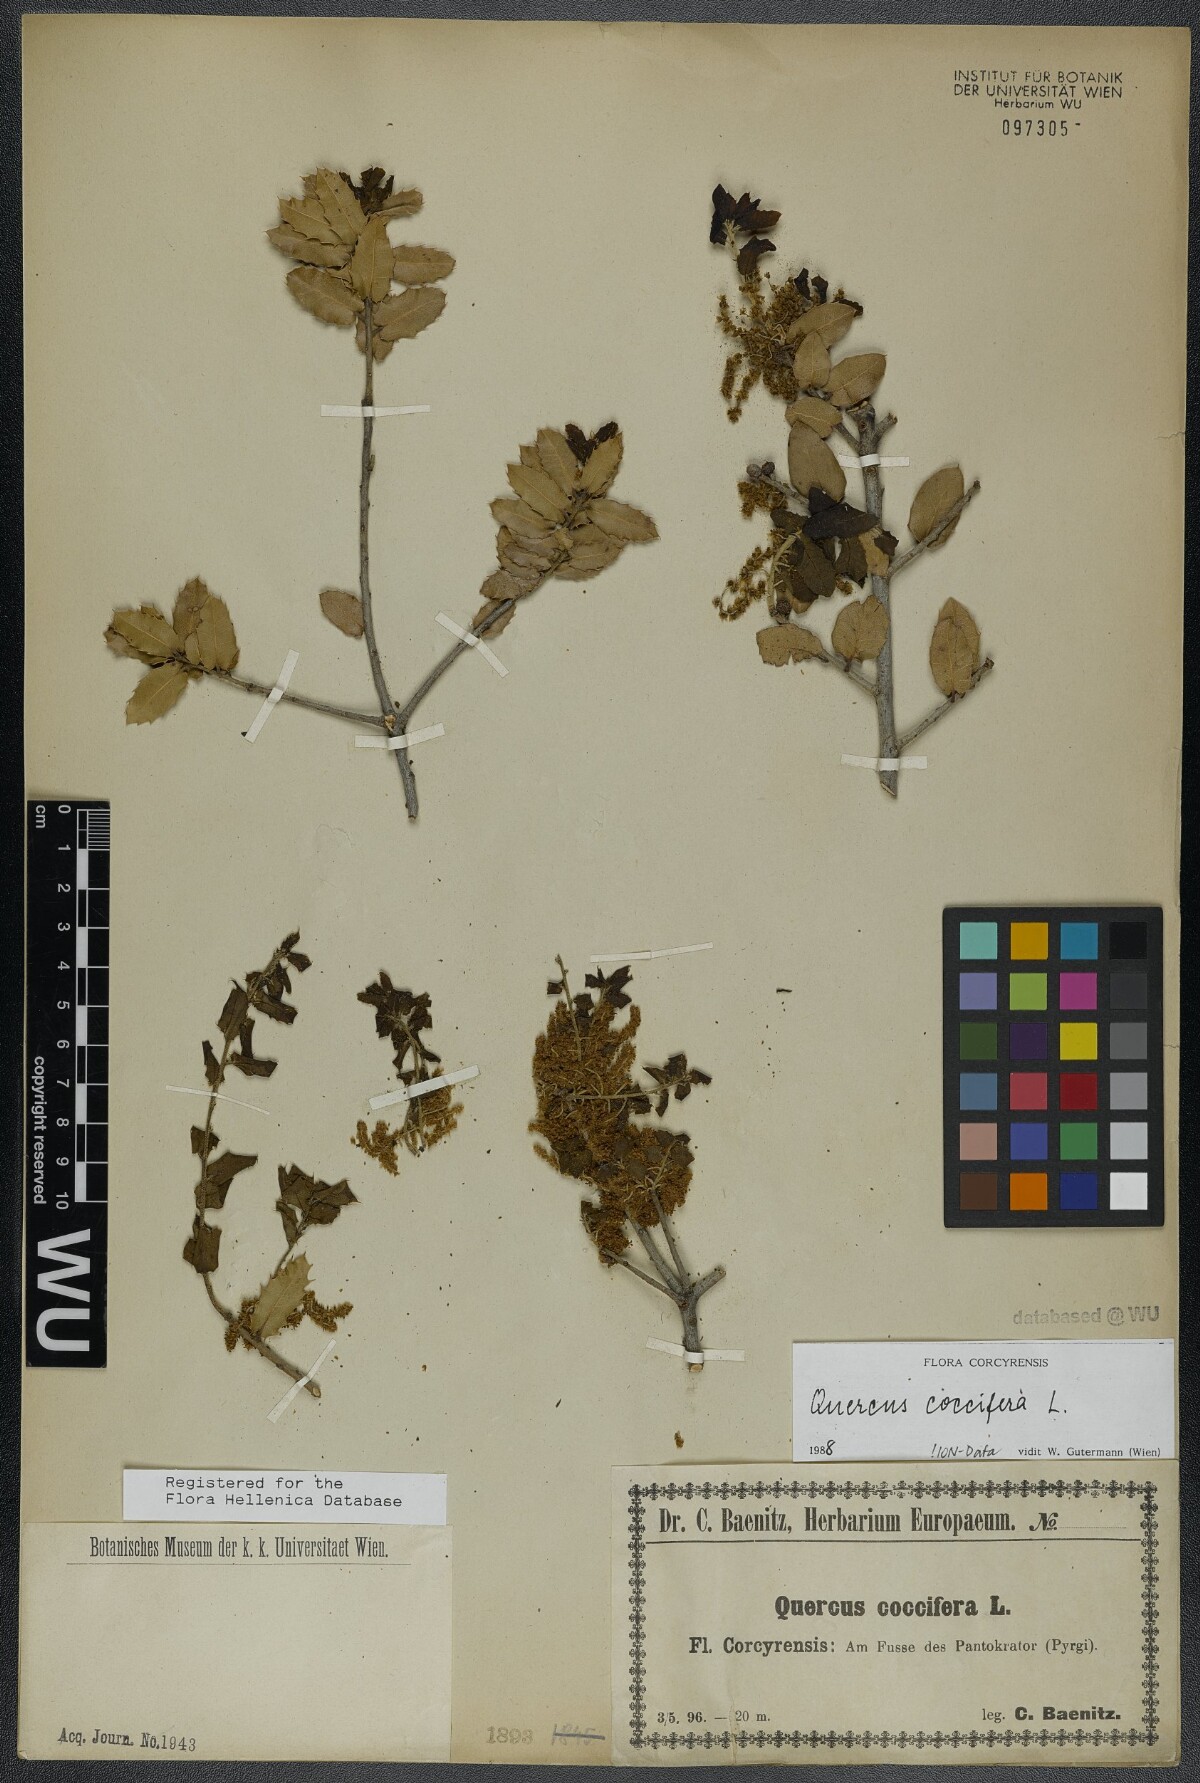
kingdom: Plantae
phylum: Tracheophyta
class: Magnoliopsida
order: Fagales
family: Fagaceae
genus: Quercus
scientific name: Quercus coccifera
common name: Kermes oak
